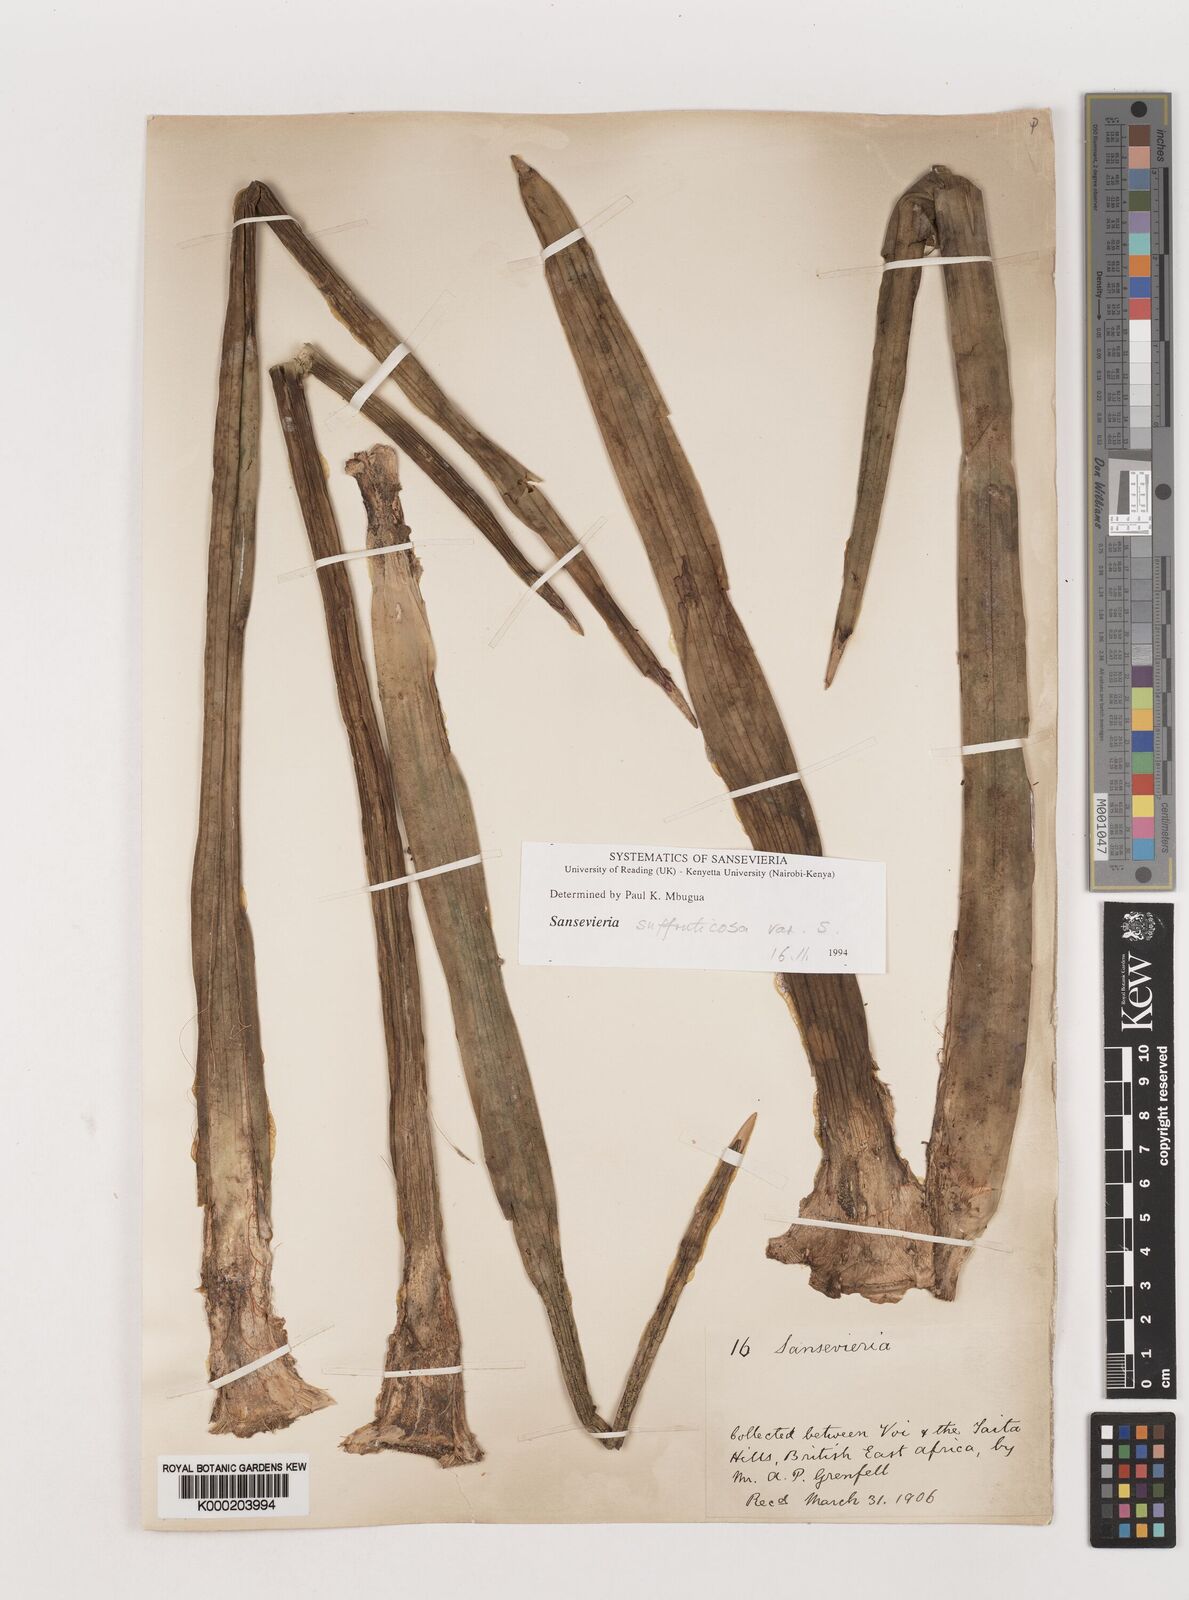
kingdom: Plantae
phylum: Tracheophyta
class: Liliopsida
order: Asparagales
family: Asparagaceae
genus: Dracaena
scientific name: Dracaena
